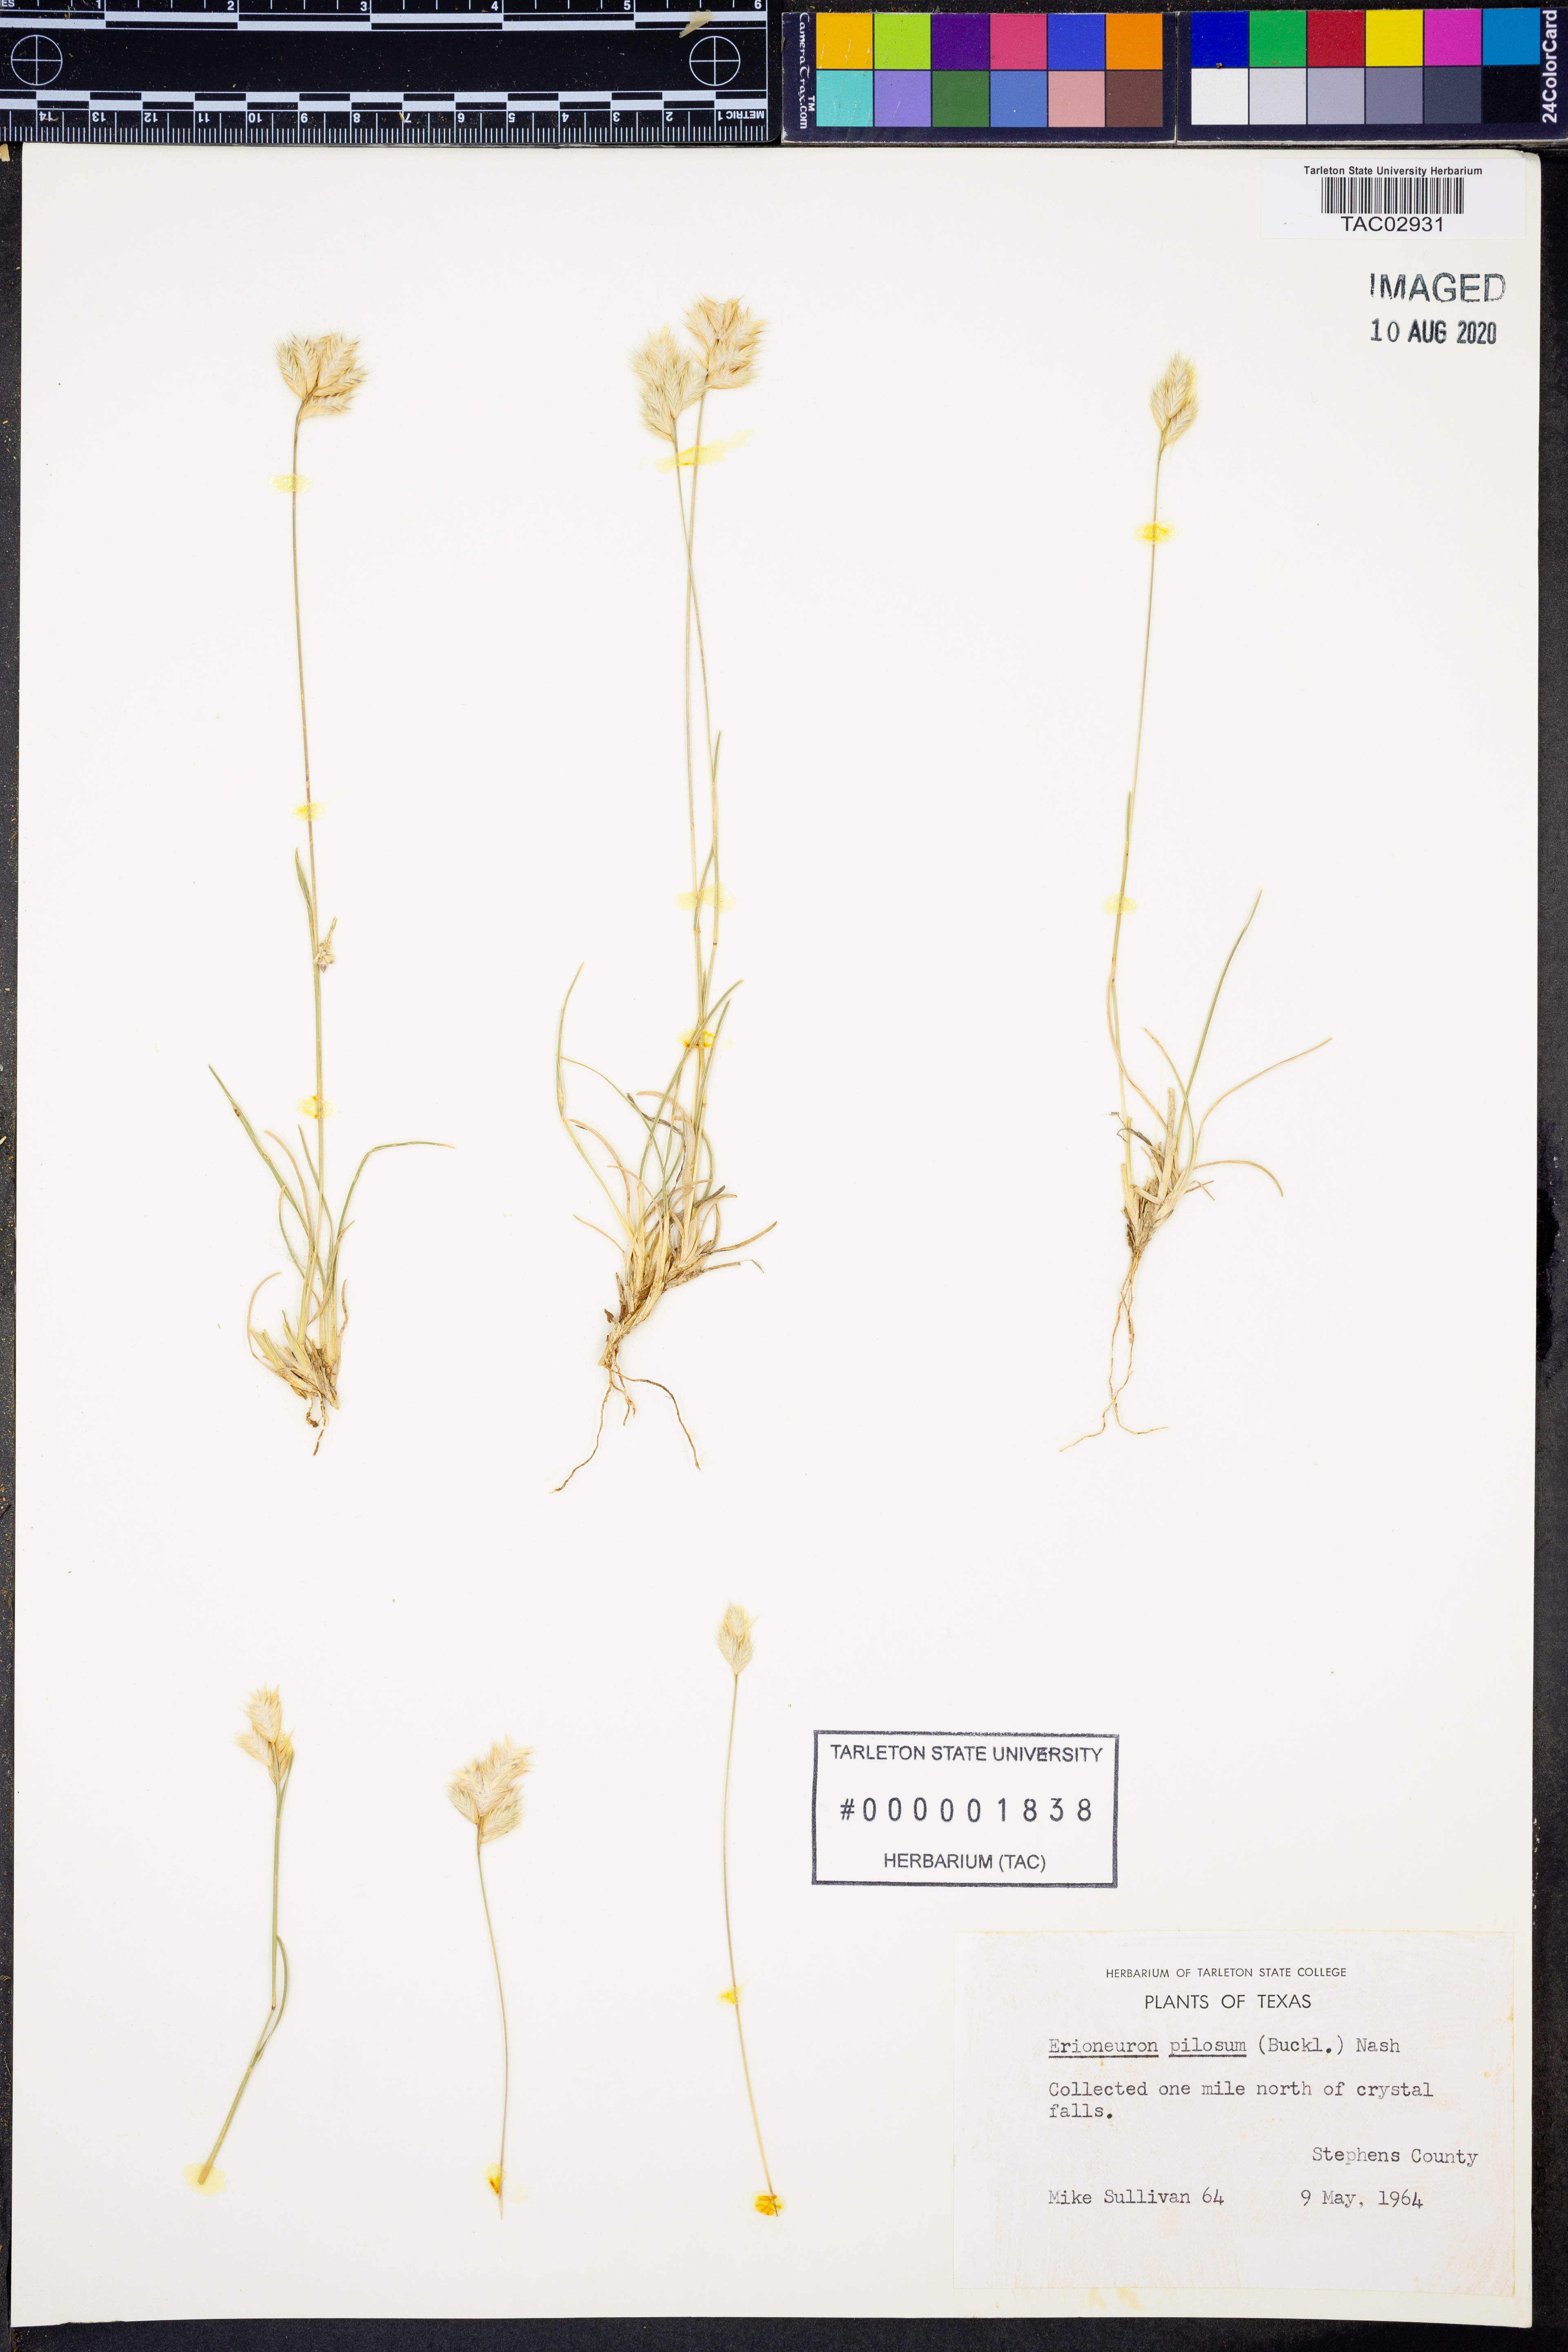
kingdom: Plantae
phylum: Tracheophyta
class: Liliopsida
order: Poales
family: Poaceae
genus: Erioneuron
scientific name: Erioneuron pilosum
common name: Hairy woolly grass
